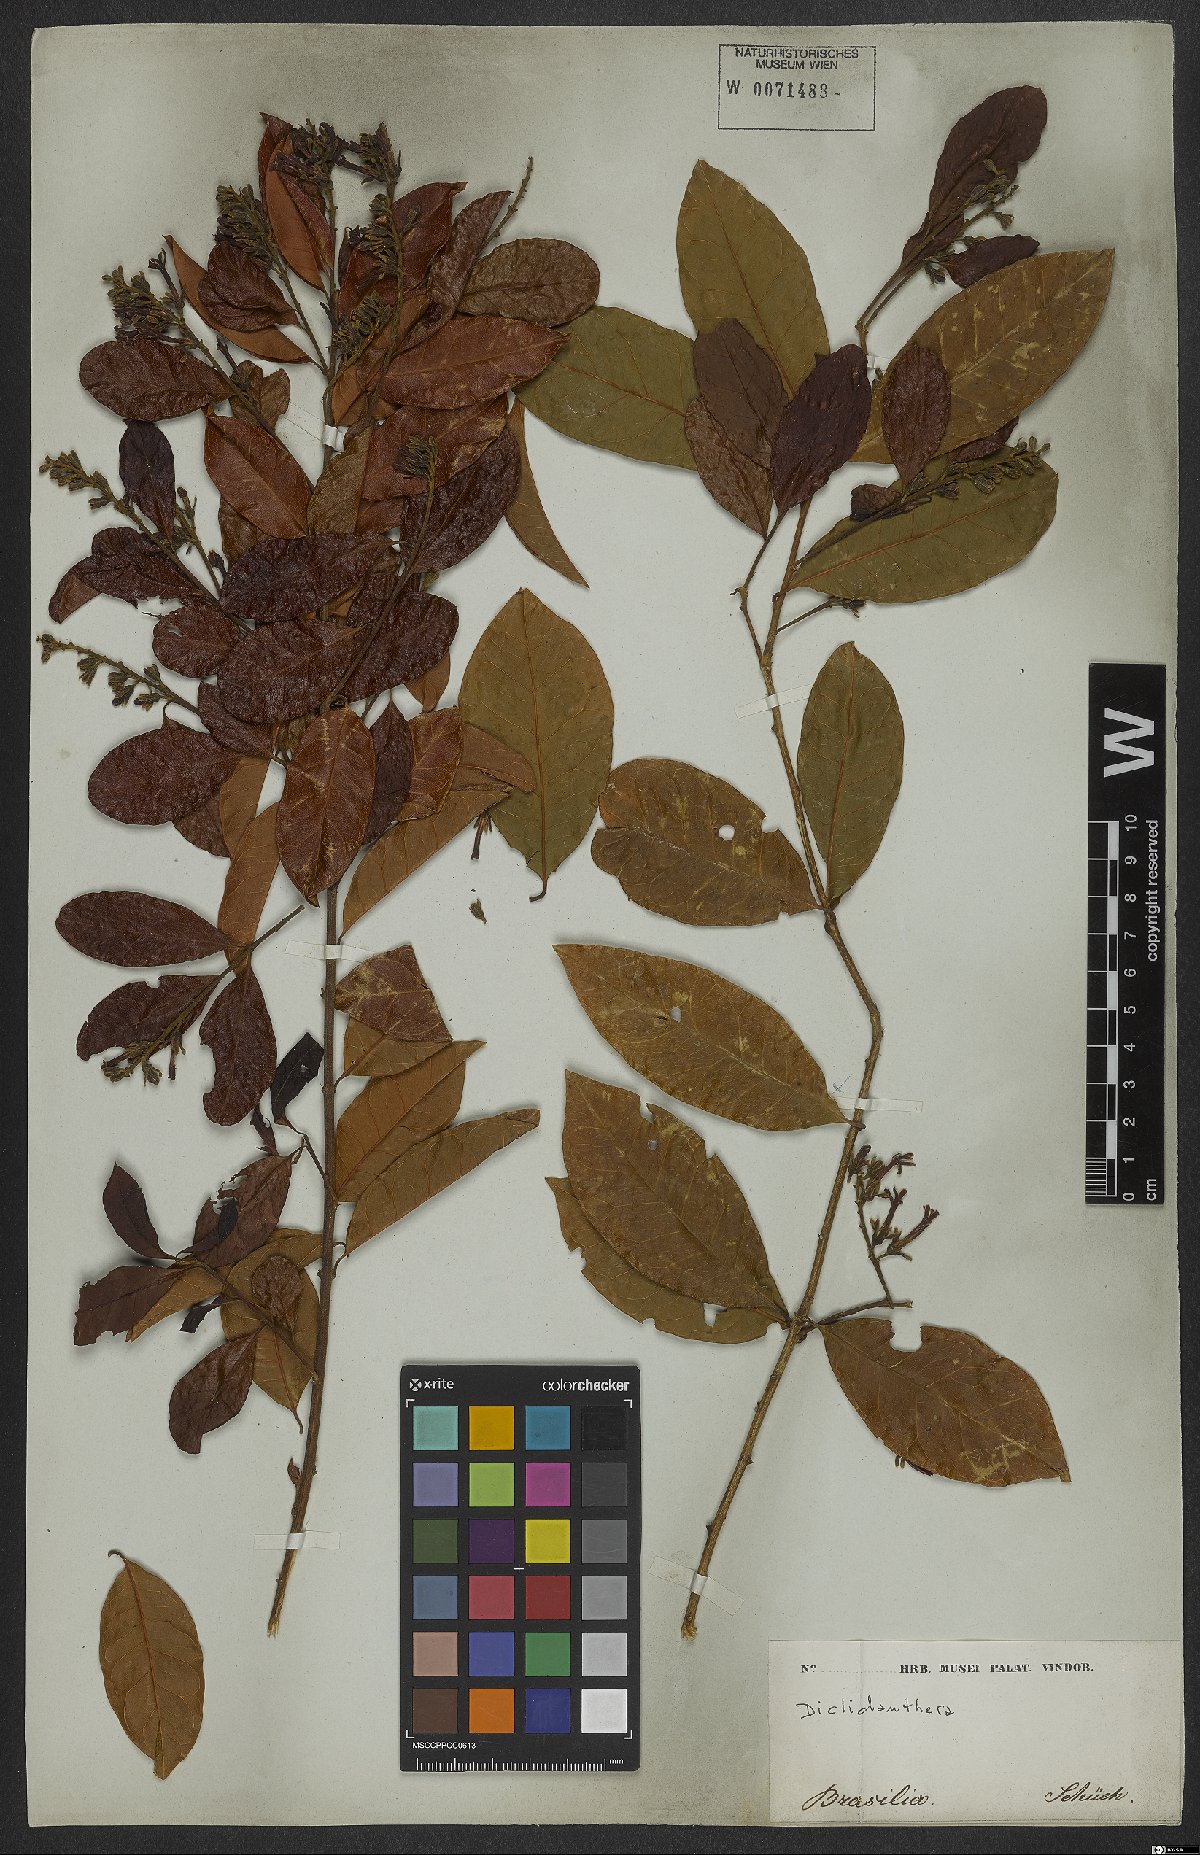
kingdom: Plantae
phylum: Tracheophyta
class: Magnoliopsida
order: Fabales
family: Polygalaceae
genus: Diclidanthera
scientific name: Diclidanthera
